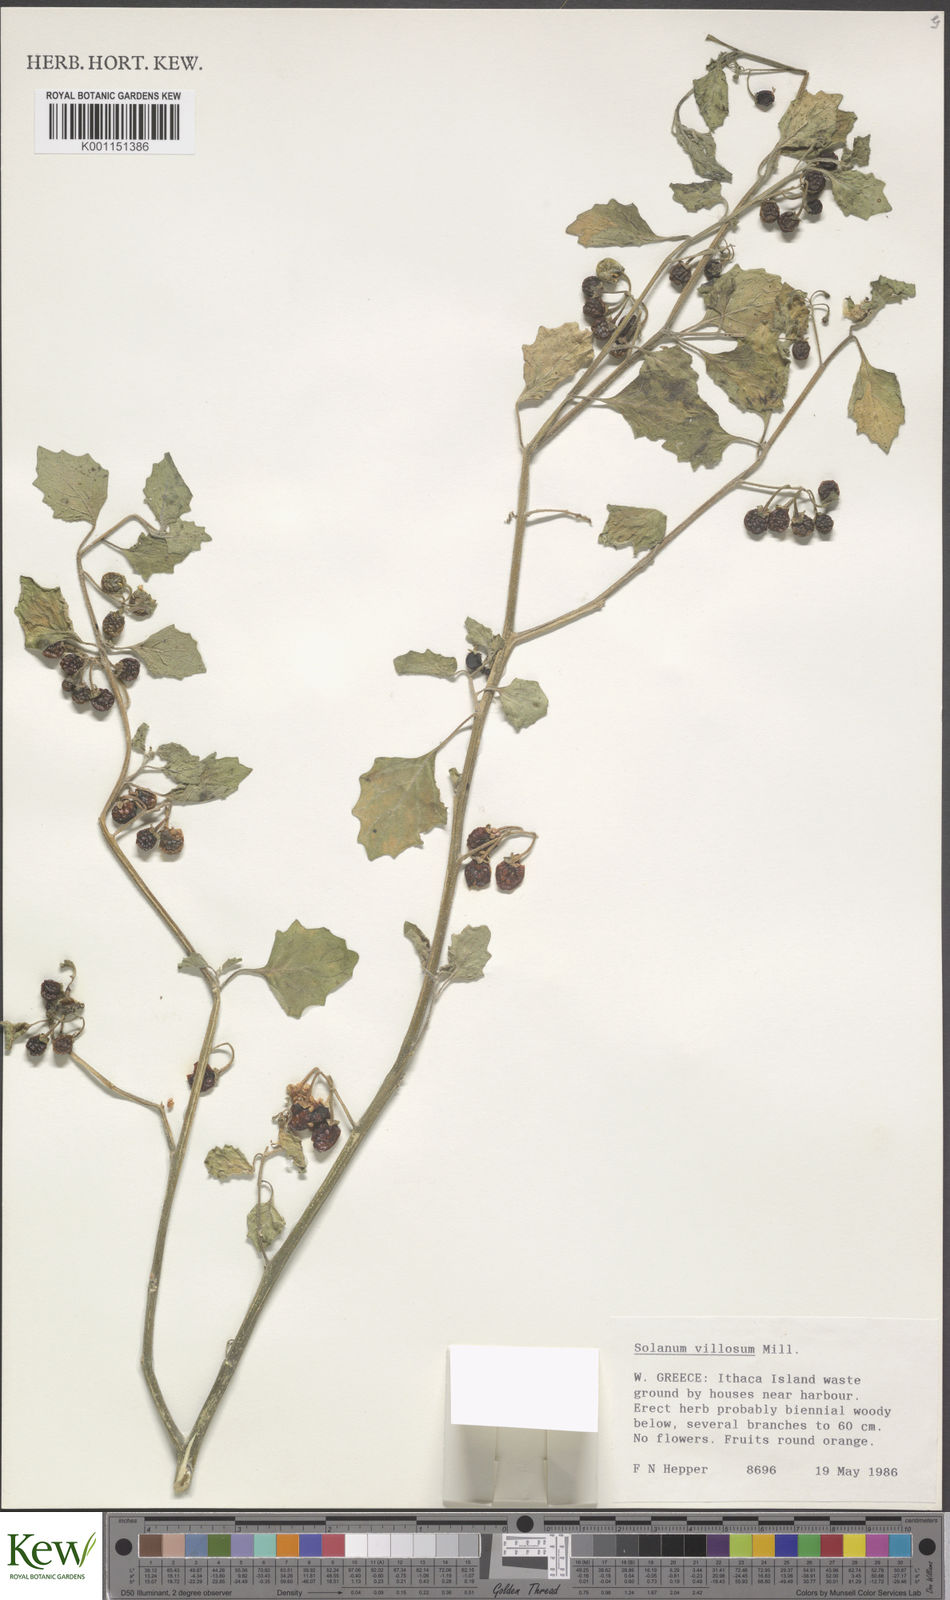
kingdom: Plantae
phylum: Tracheophyta
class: Magnoliopsida
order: Solanales
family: Solanaceae
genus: Solanum
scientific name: Solanum villosum
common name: Red nightshade
